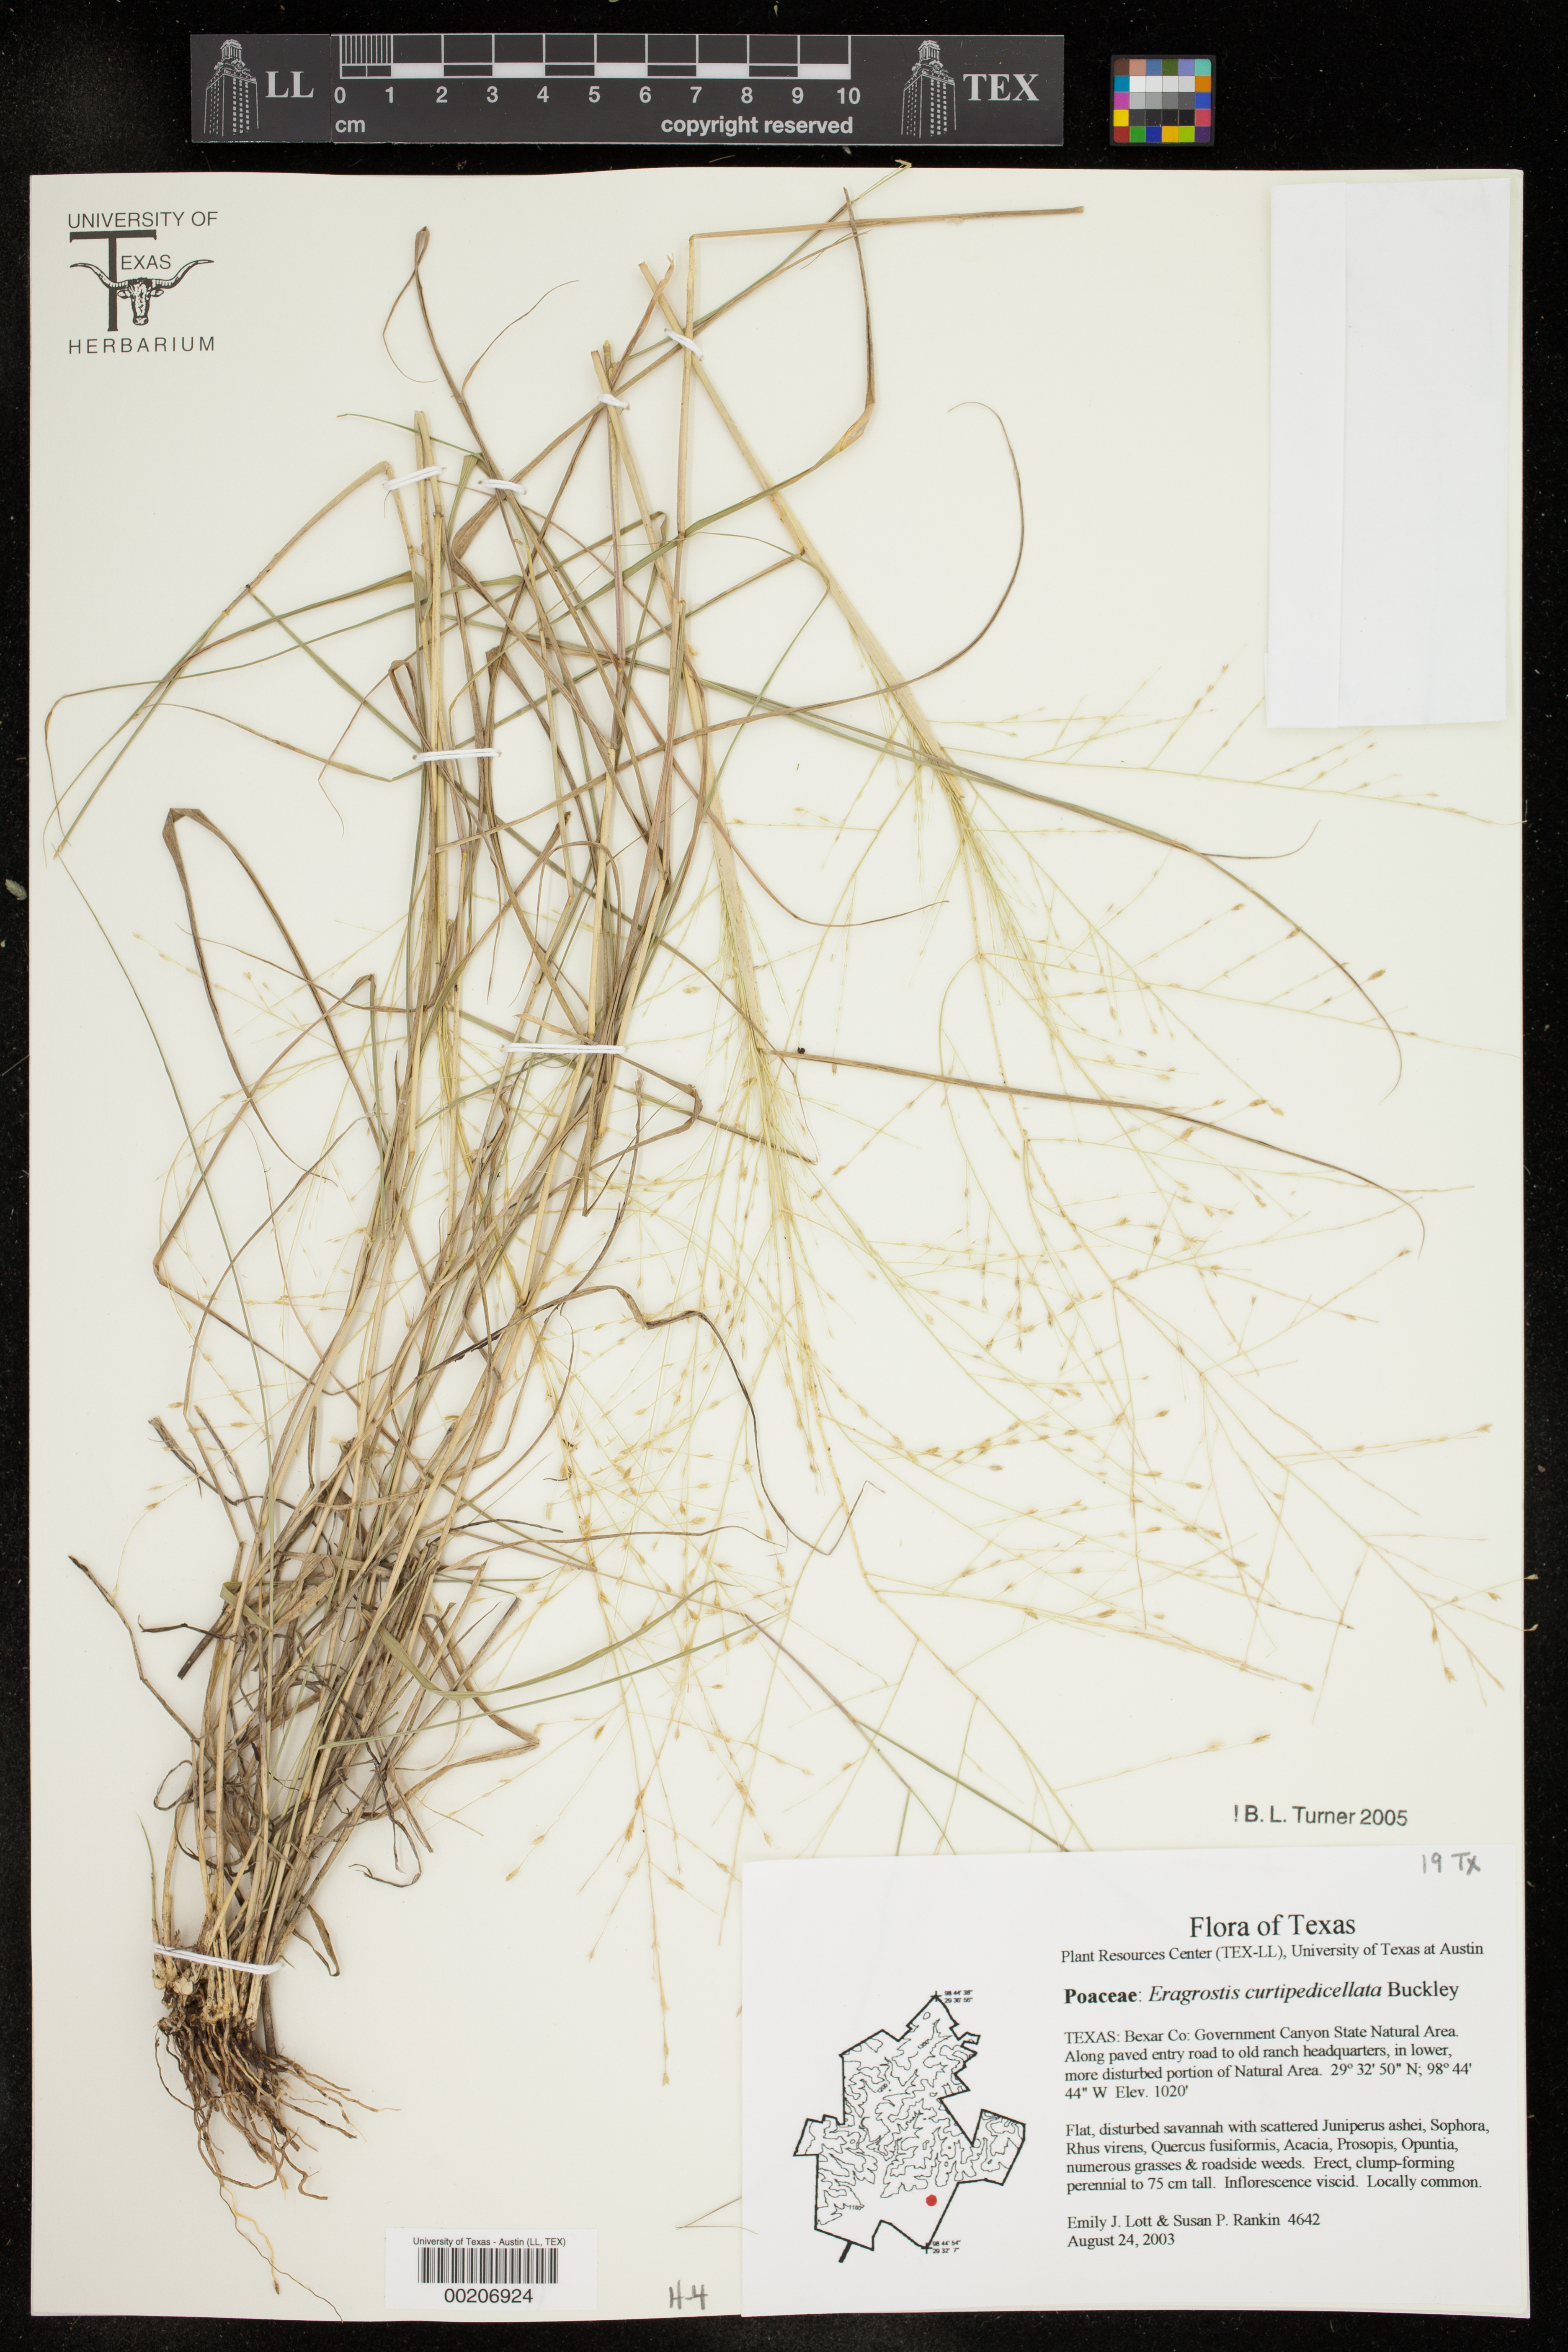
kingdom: Plantae
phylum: Tracheophyta
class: Liliopsida
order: Poales
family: Poaceae
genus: Eragrostis
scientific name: Eragrostis curtipedicellata
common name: Gummy love grass
